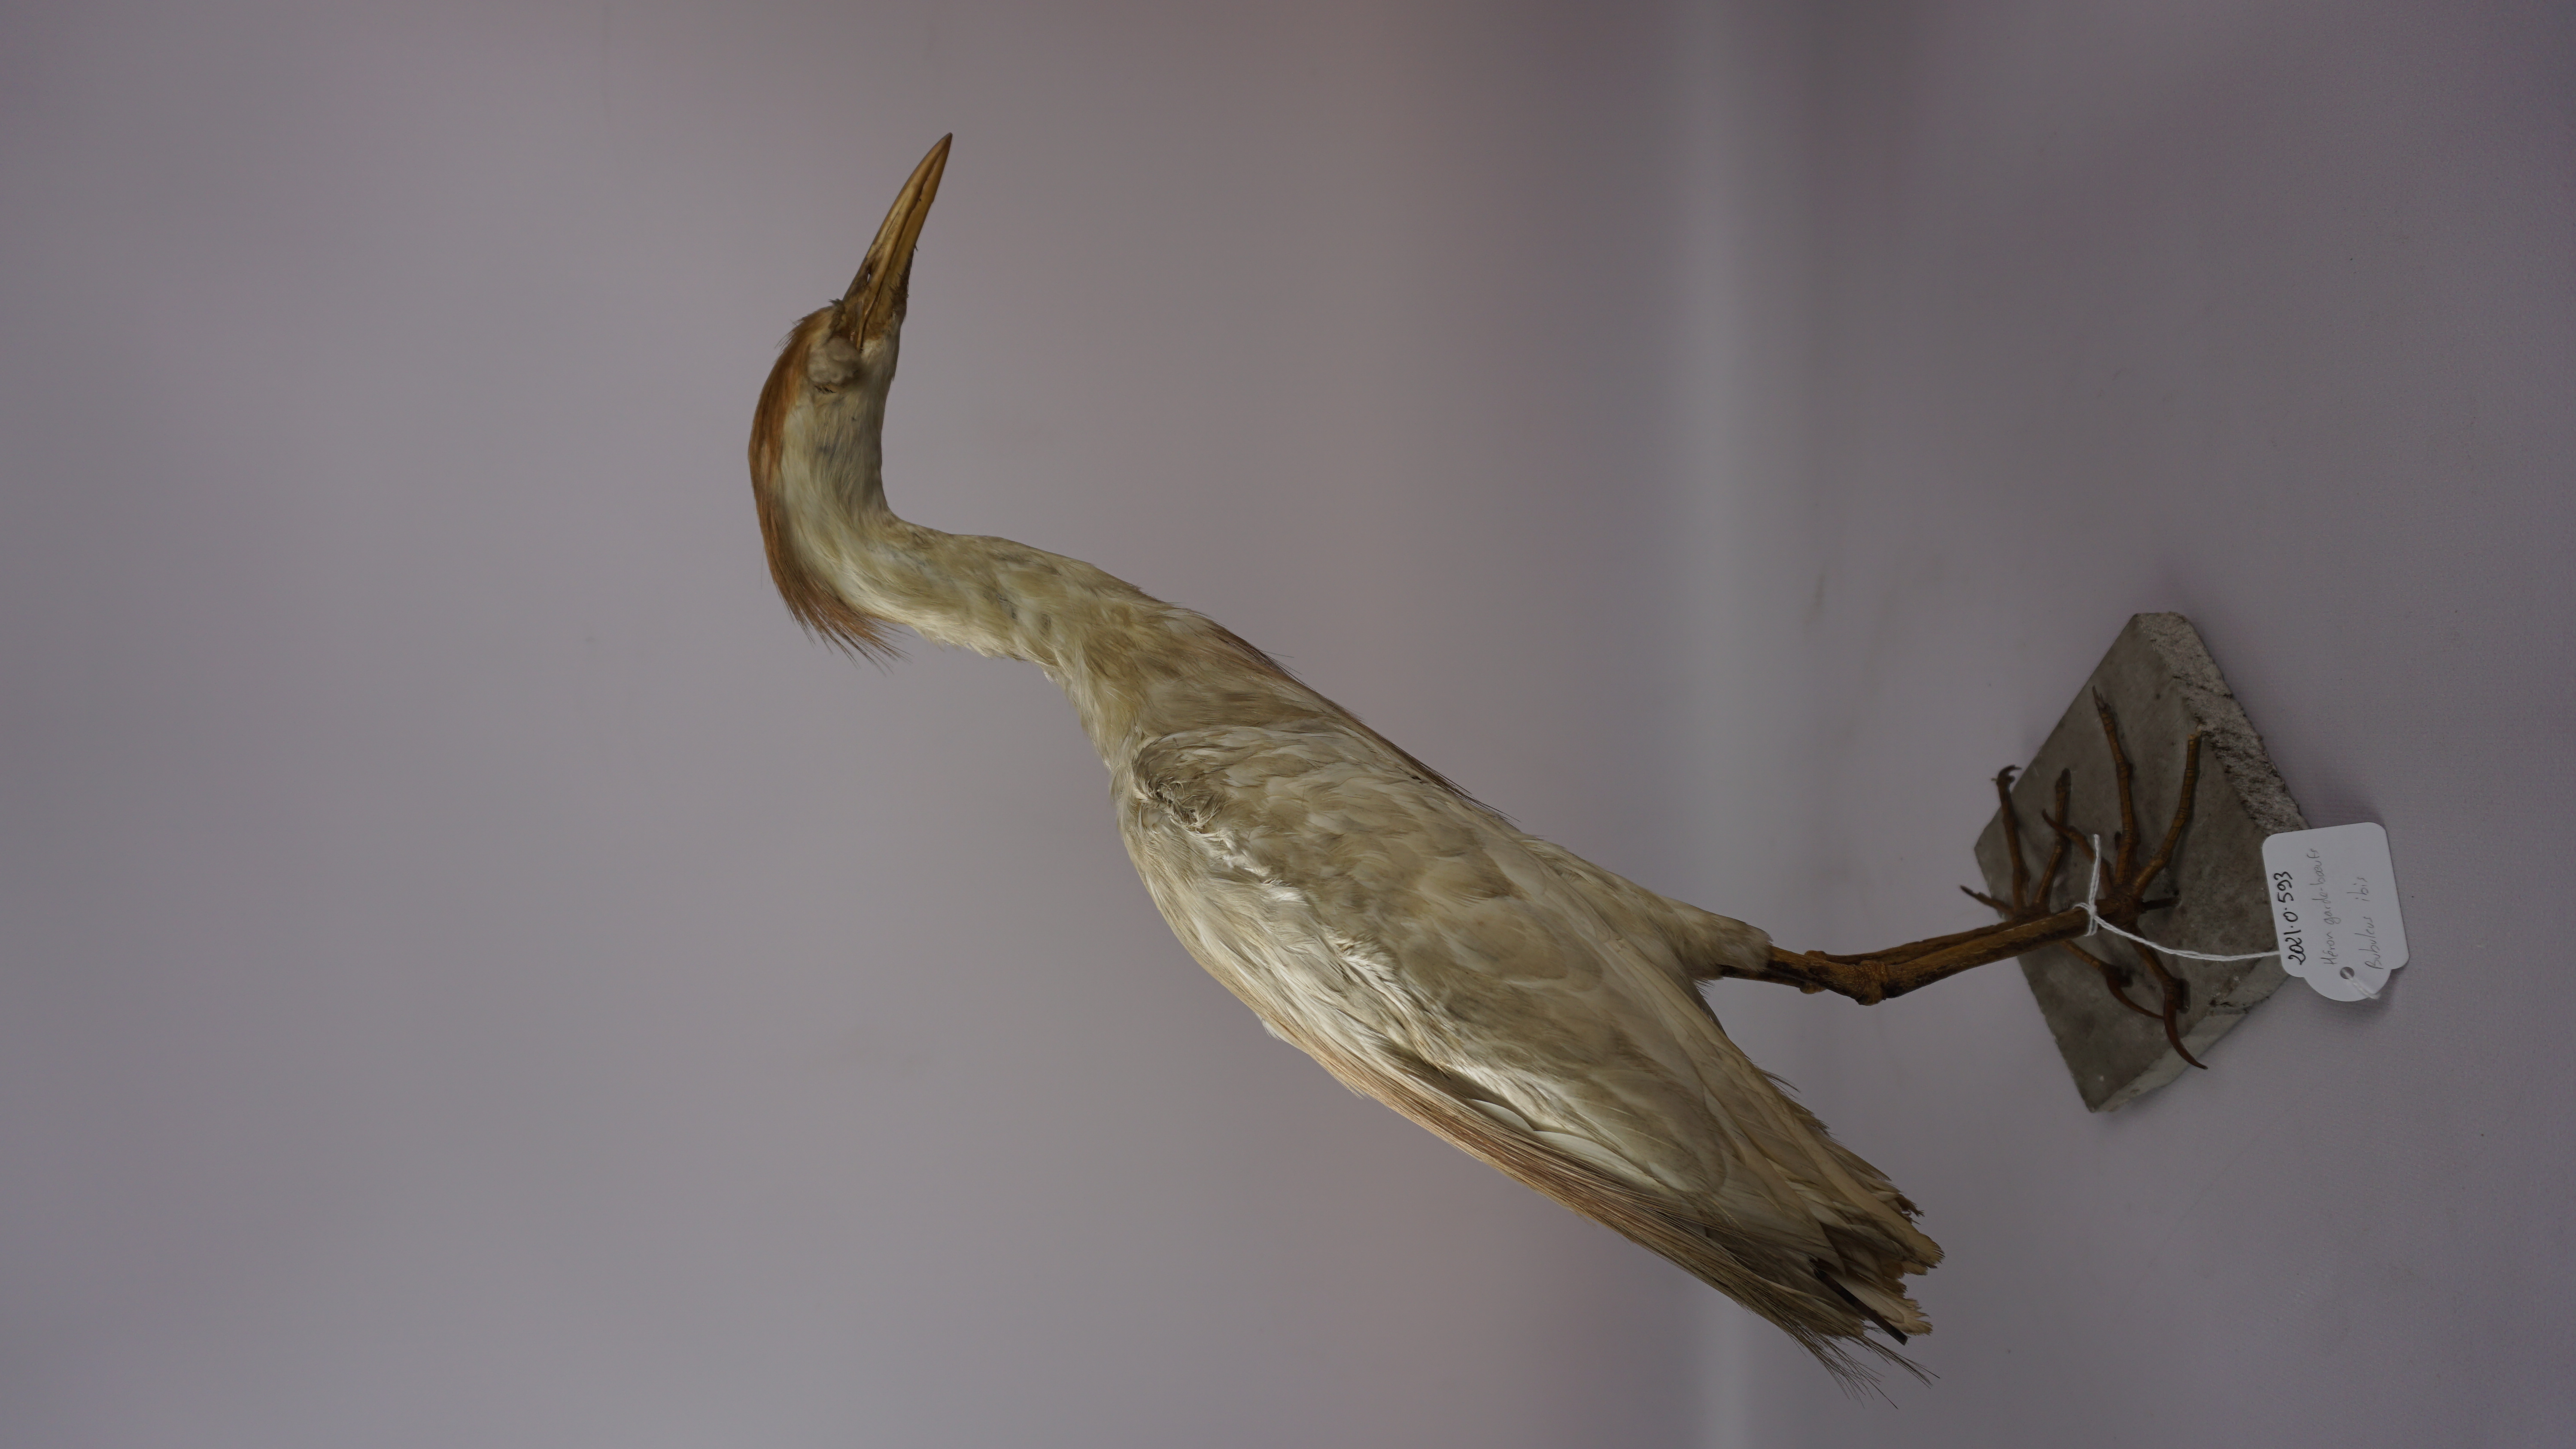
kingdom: Animalia
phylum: Chordata
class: Aves
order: Pelecaniformes
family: Ardeidae
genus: Bubulcus
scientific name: Bubulcus ibis
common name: Cattle egret
